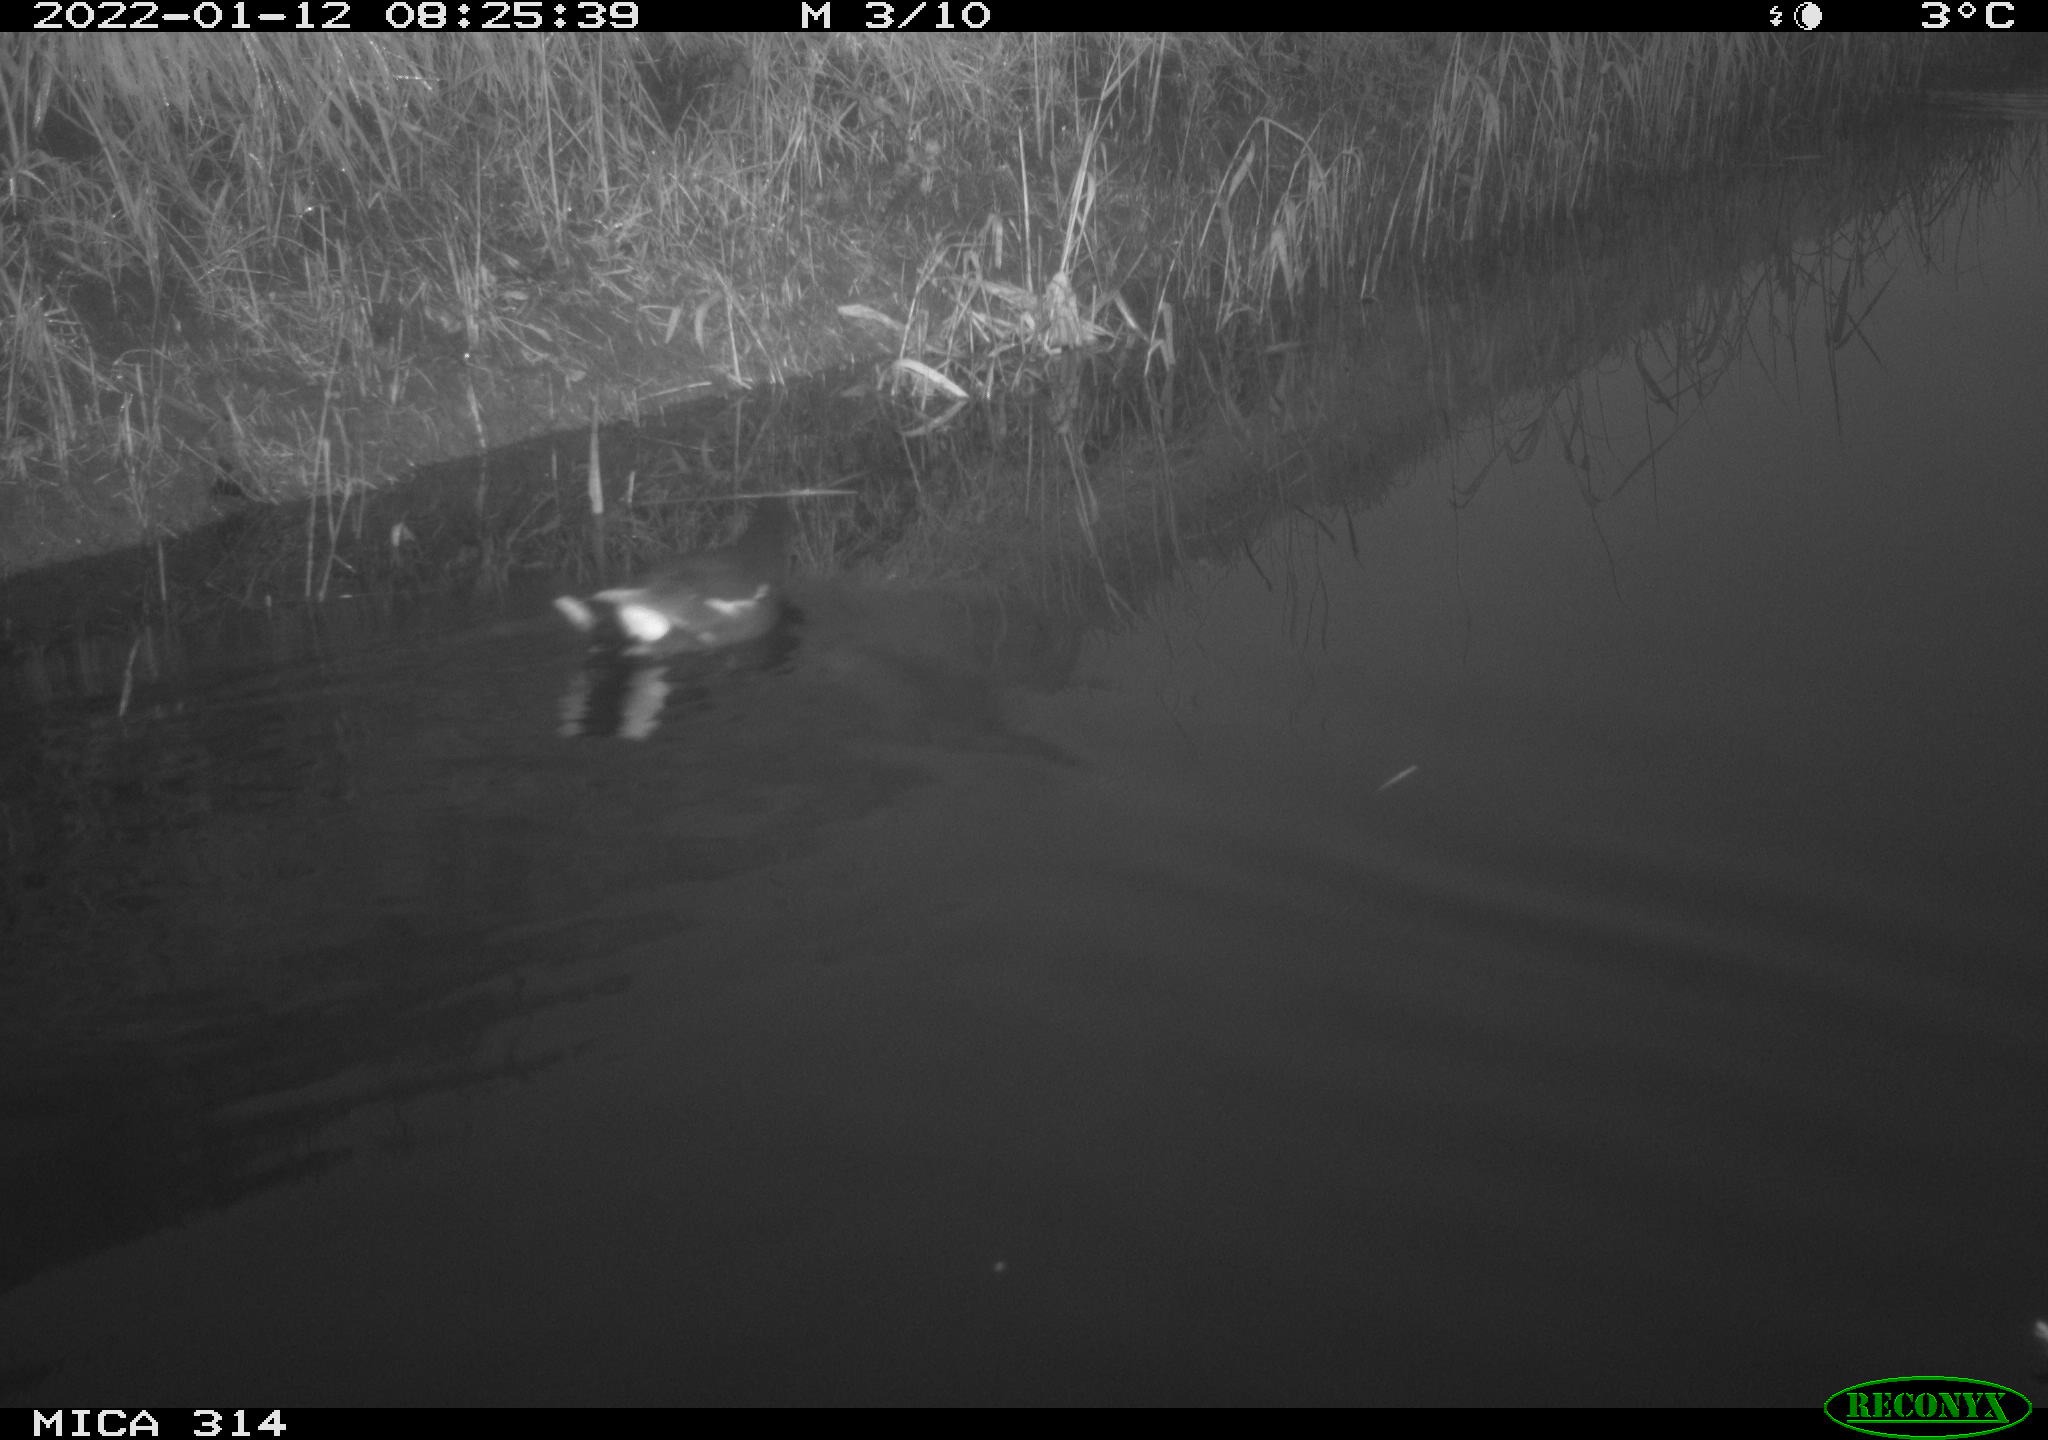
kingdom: Animalia
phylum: Chordata
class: Aves
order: Gruiformes
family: Rallidae
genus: Gallinula
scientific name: Gallinula chloropus
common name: Common moorhen
